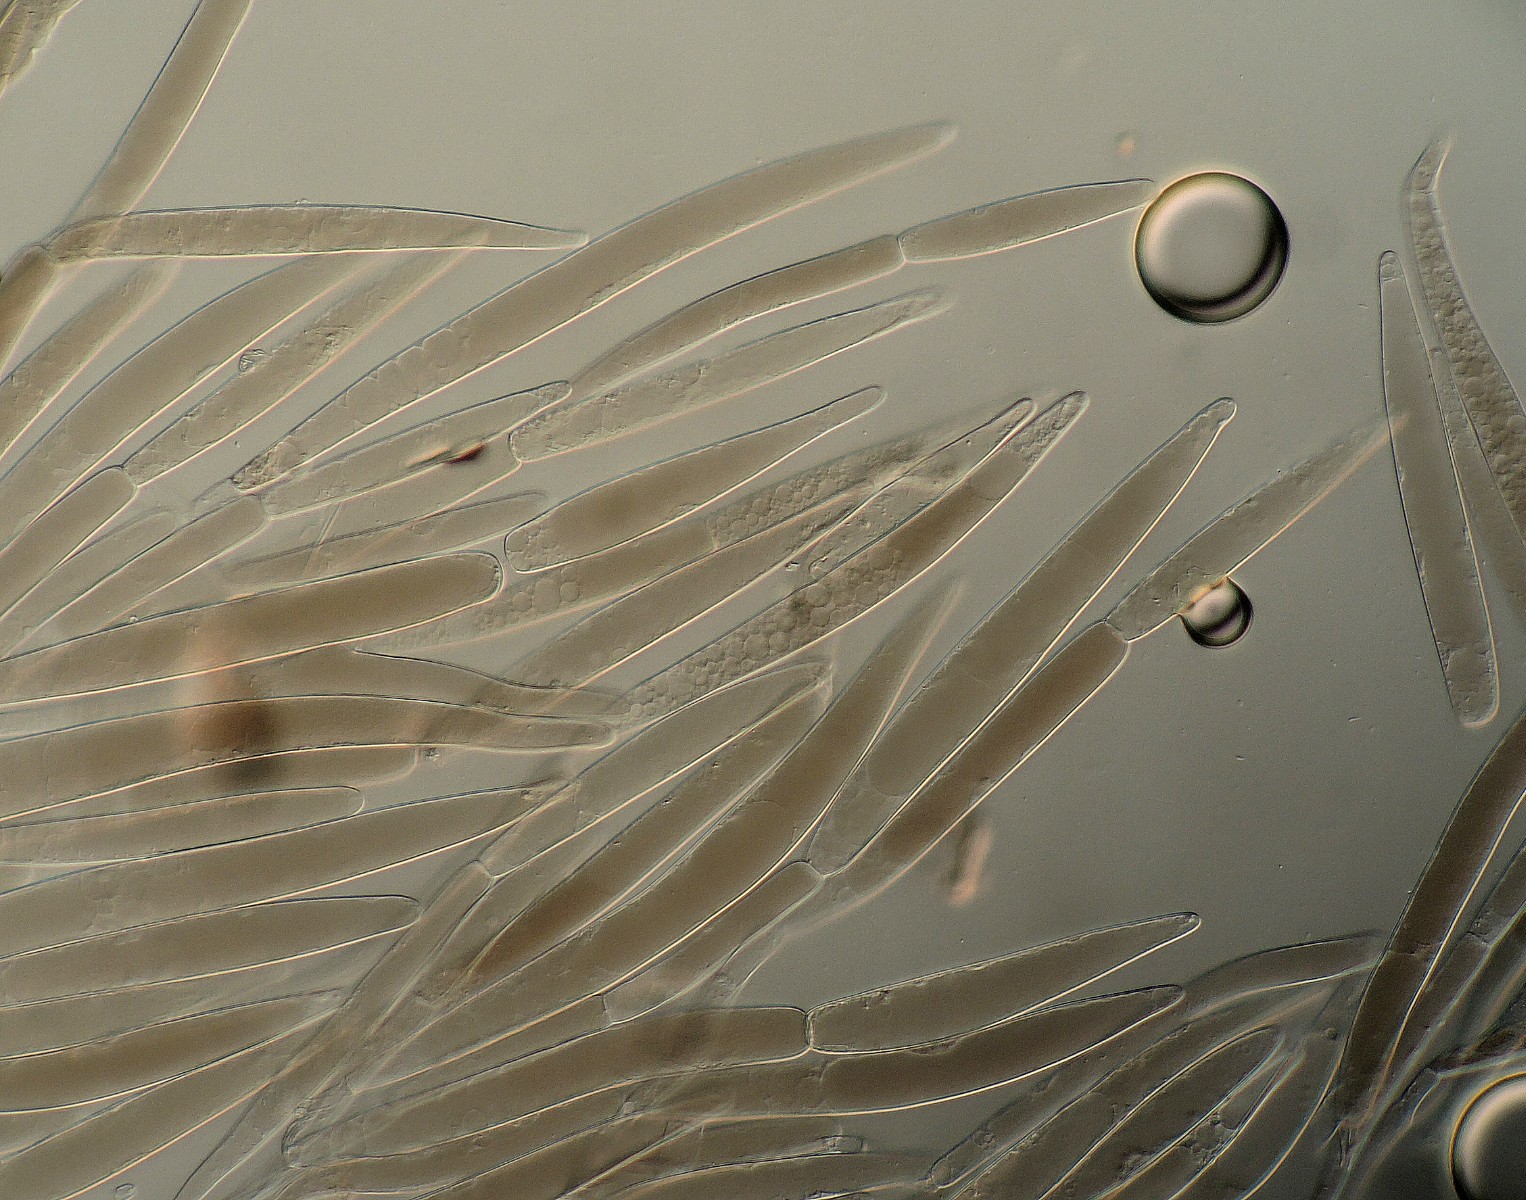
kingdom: Fungi
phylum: Basidiomycota
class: Agaricomycetes
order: Agaricales
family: Pluteaceae
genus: Pluteus
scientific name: Pluteus
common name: stivhåret skærmhat
